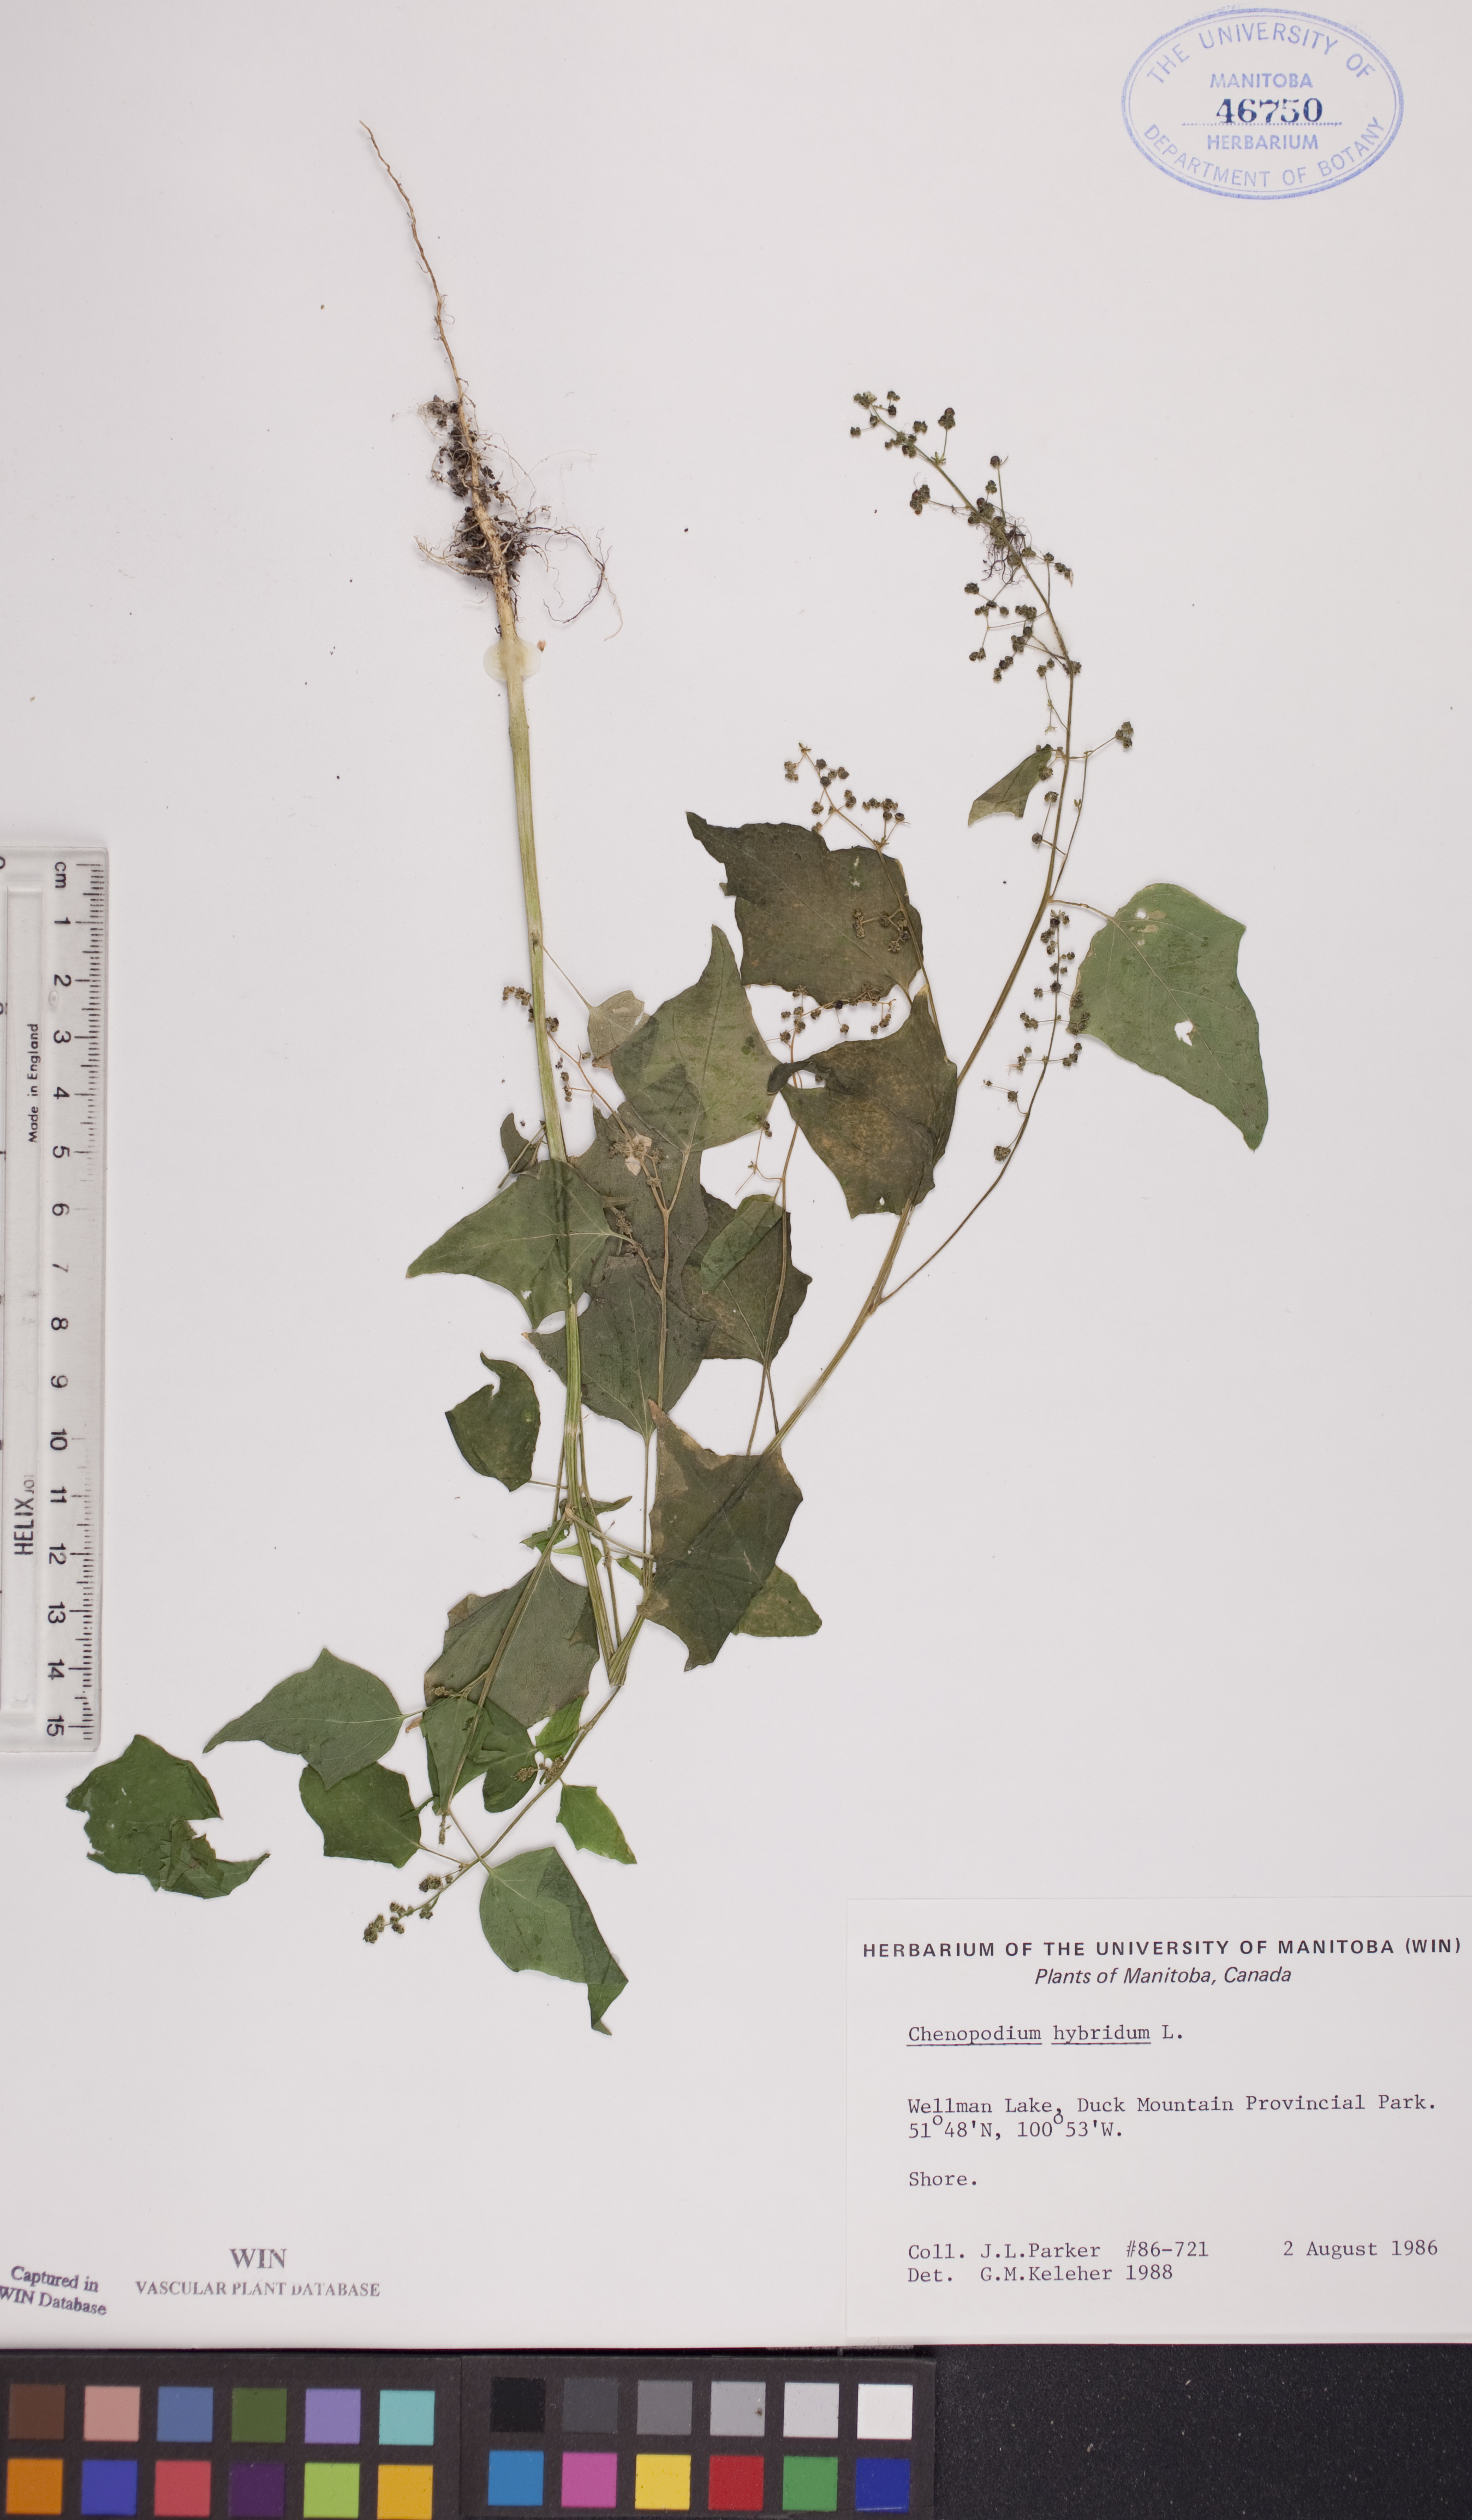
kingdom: Plantae
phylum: Tracheophyta
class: Magnoliopsida
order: Caryophyllales
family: Amaranthaceae
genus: Chenopodiastrum
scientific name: Chenopodiastrum hybridum
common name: Mapleleaf goosefoot
